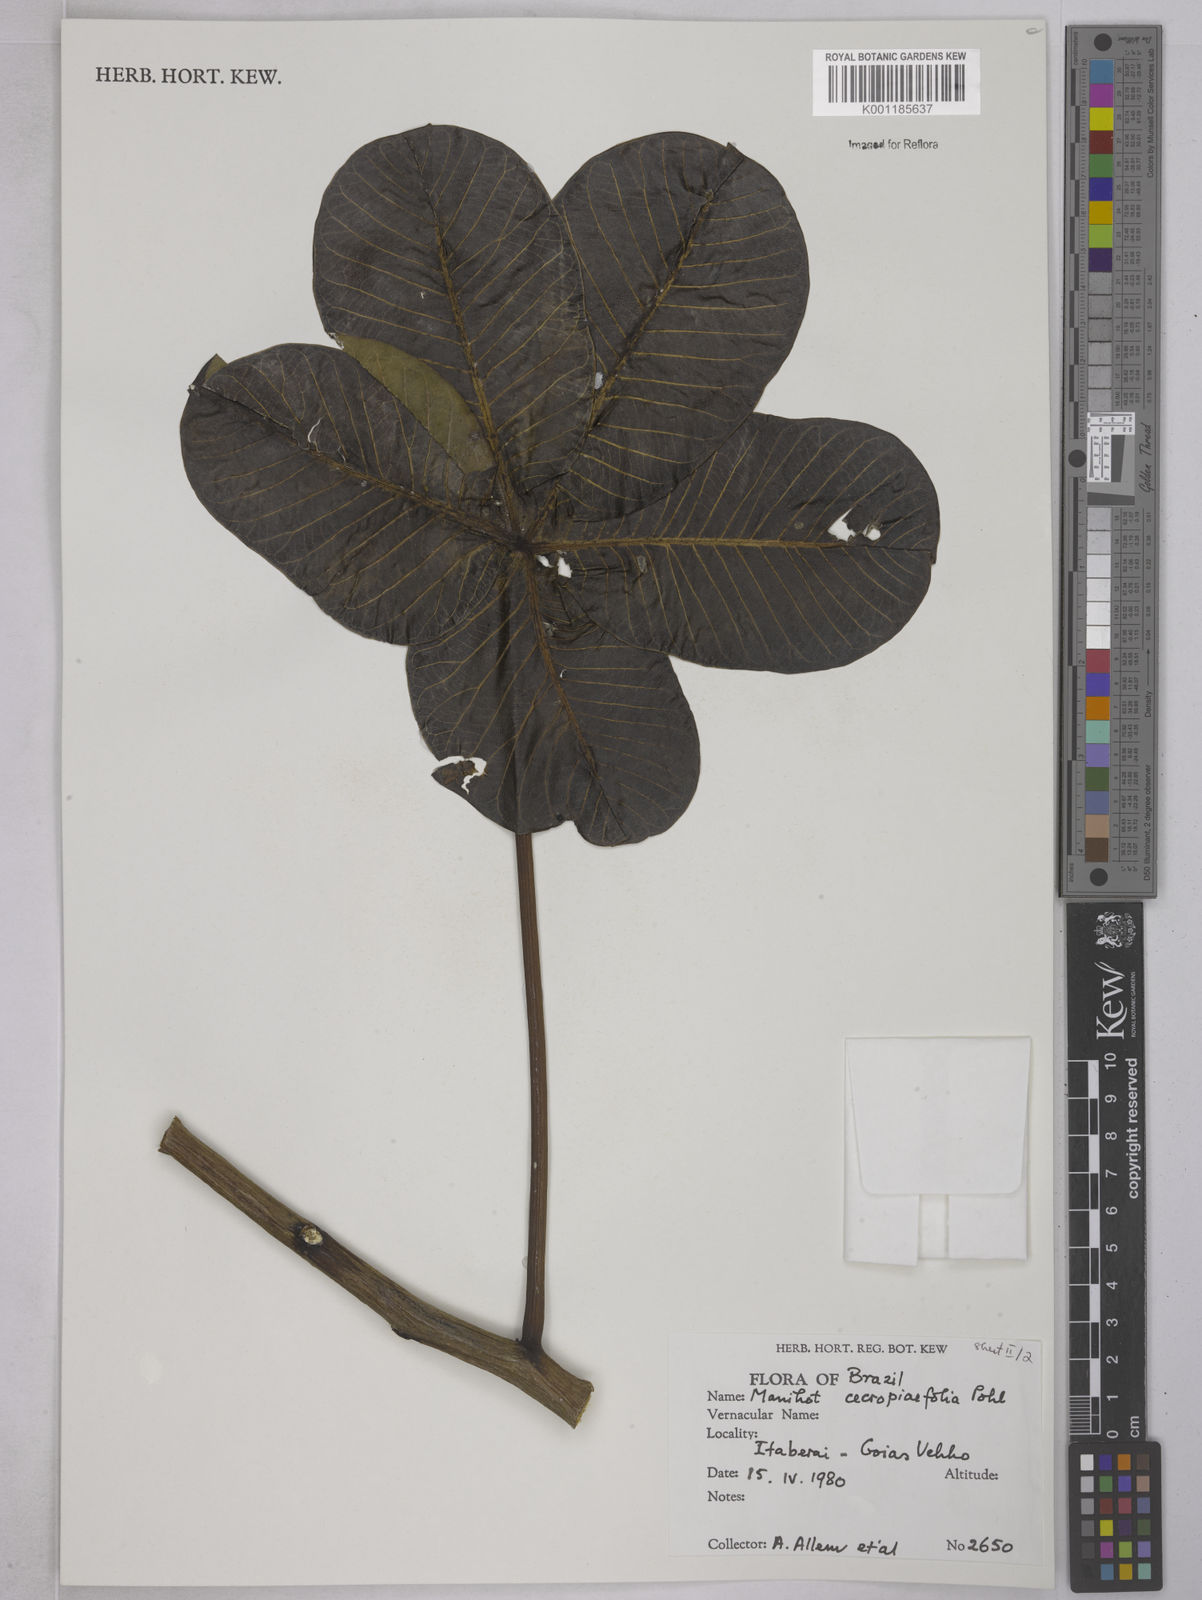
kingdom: Plantae
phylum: Tracheophyta
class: Magnoliopsida
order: Malpighiales
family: Euphorbiaceae
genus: Manihot
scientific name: Manihot cecropiifolia
